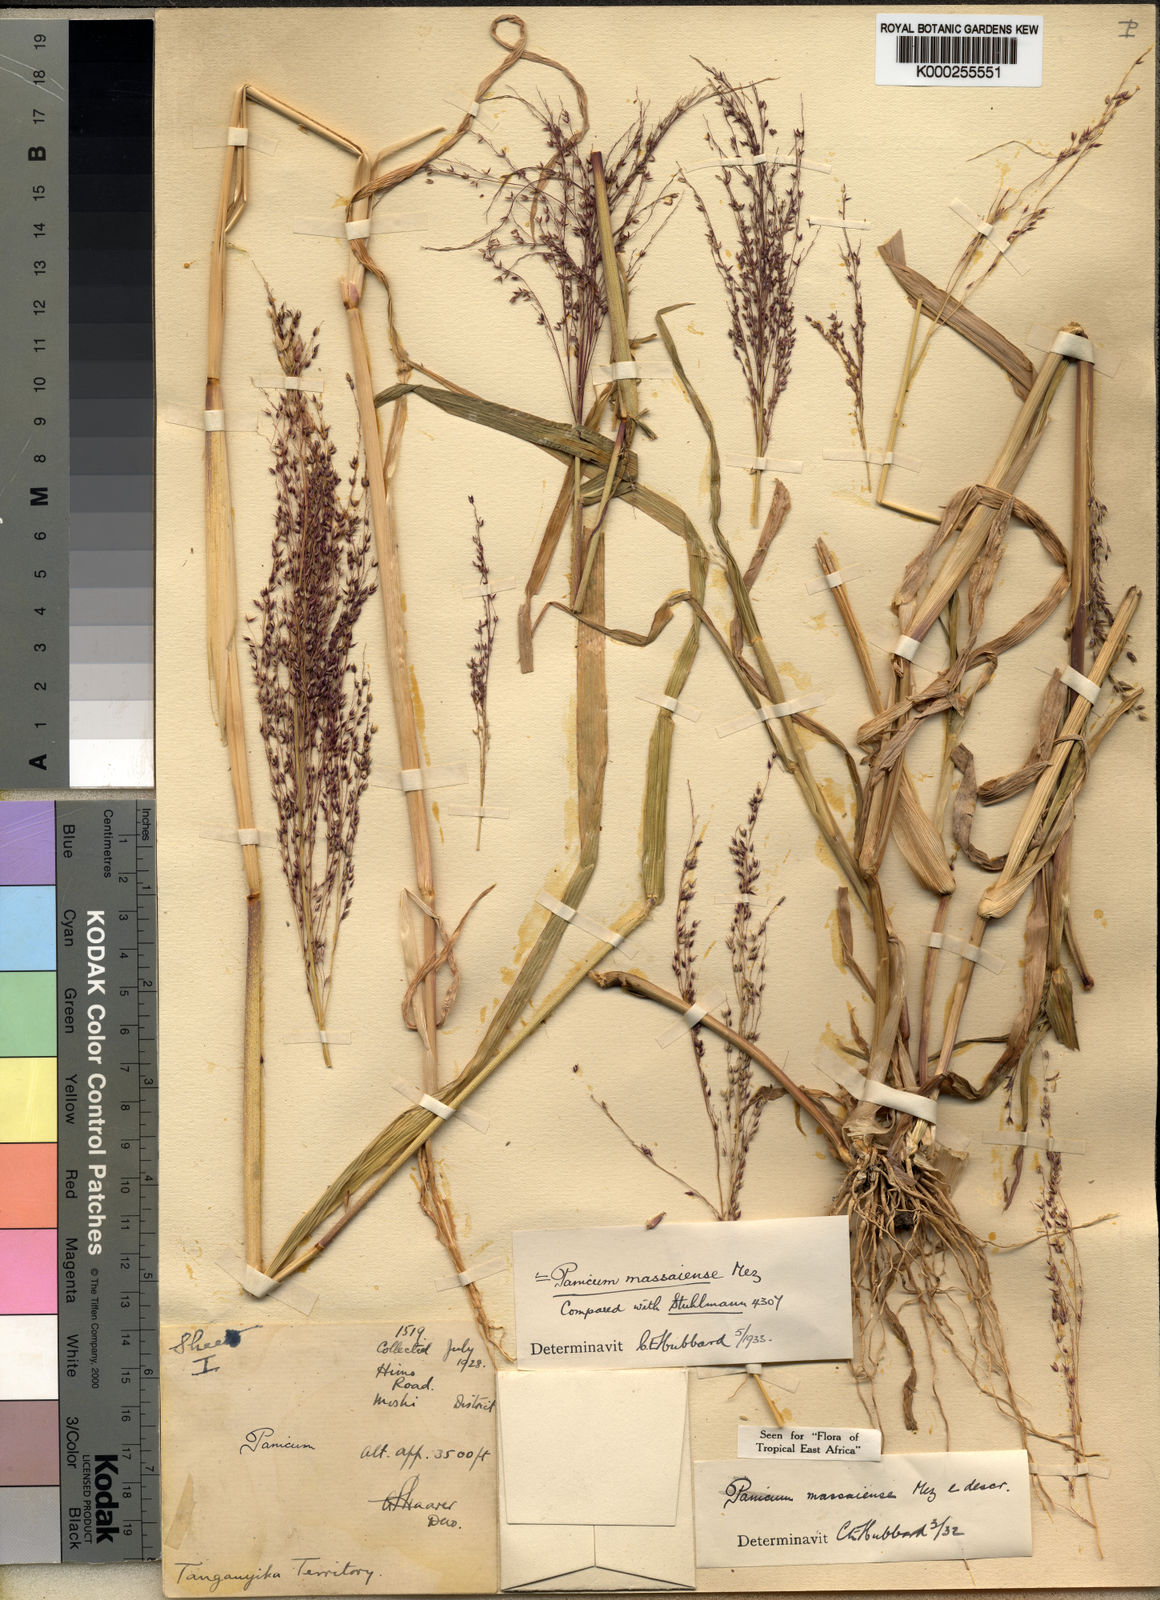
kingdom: Plantae
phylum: Tracheophyta
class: Liliopsida
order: Poales
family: Poaceae
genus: Panicum
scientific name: Panicum massaiense
